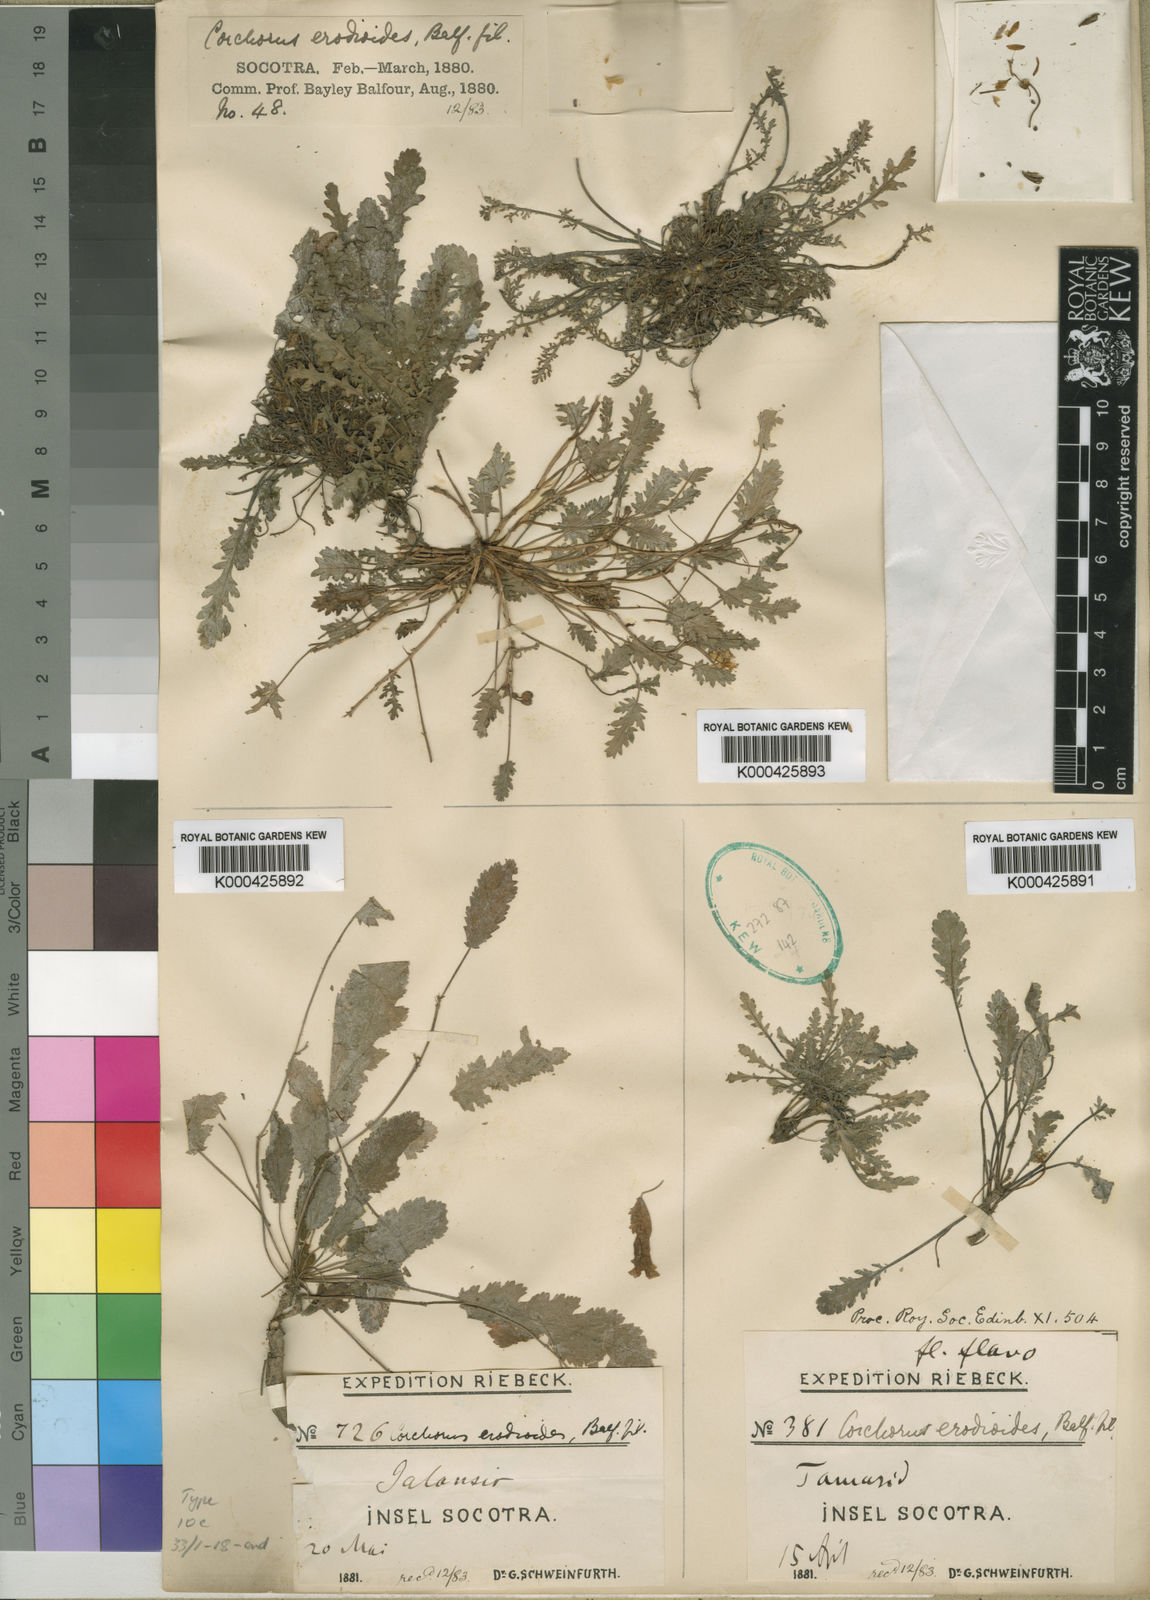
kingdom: Plantae
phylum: Tracheophyta
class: Magnoliopsida
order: Malvales
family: Malvaceae
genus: Corchorus
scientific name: Corchorus erodioides
